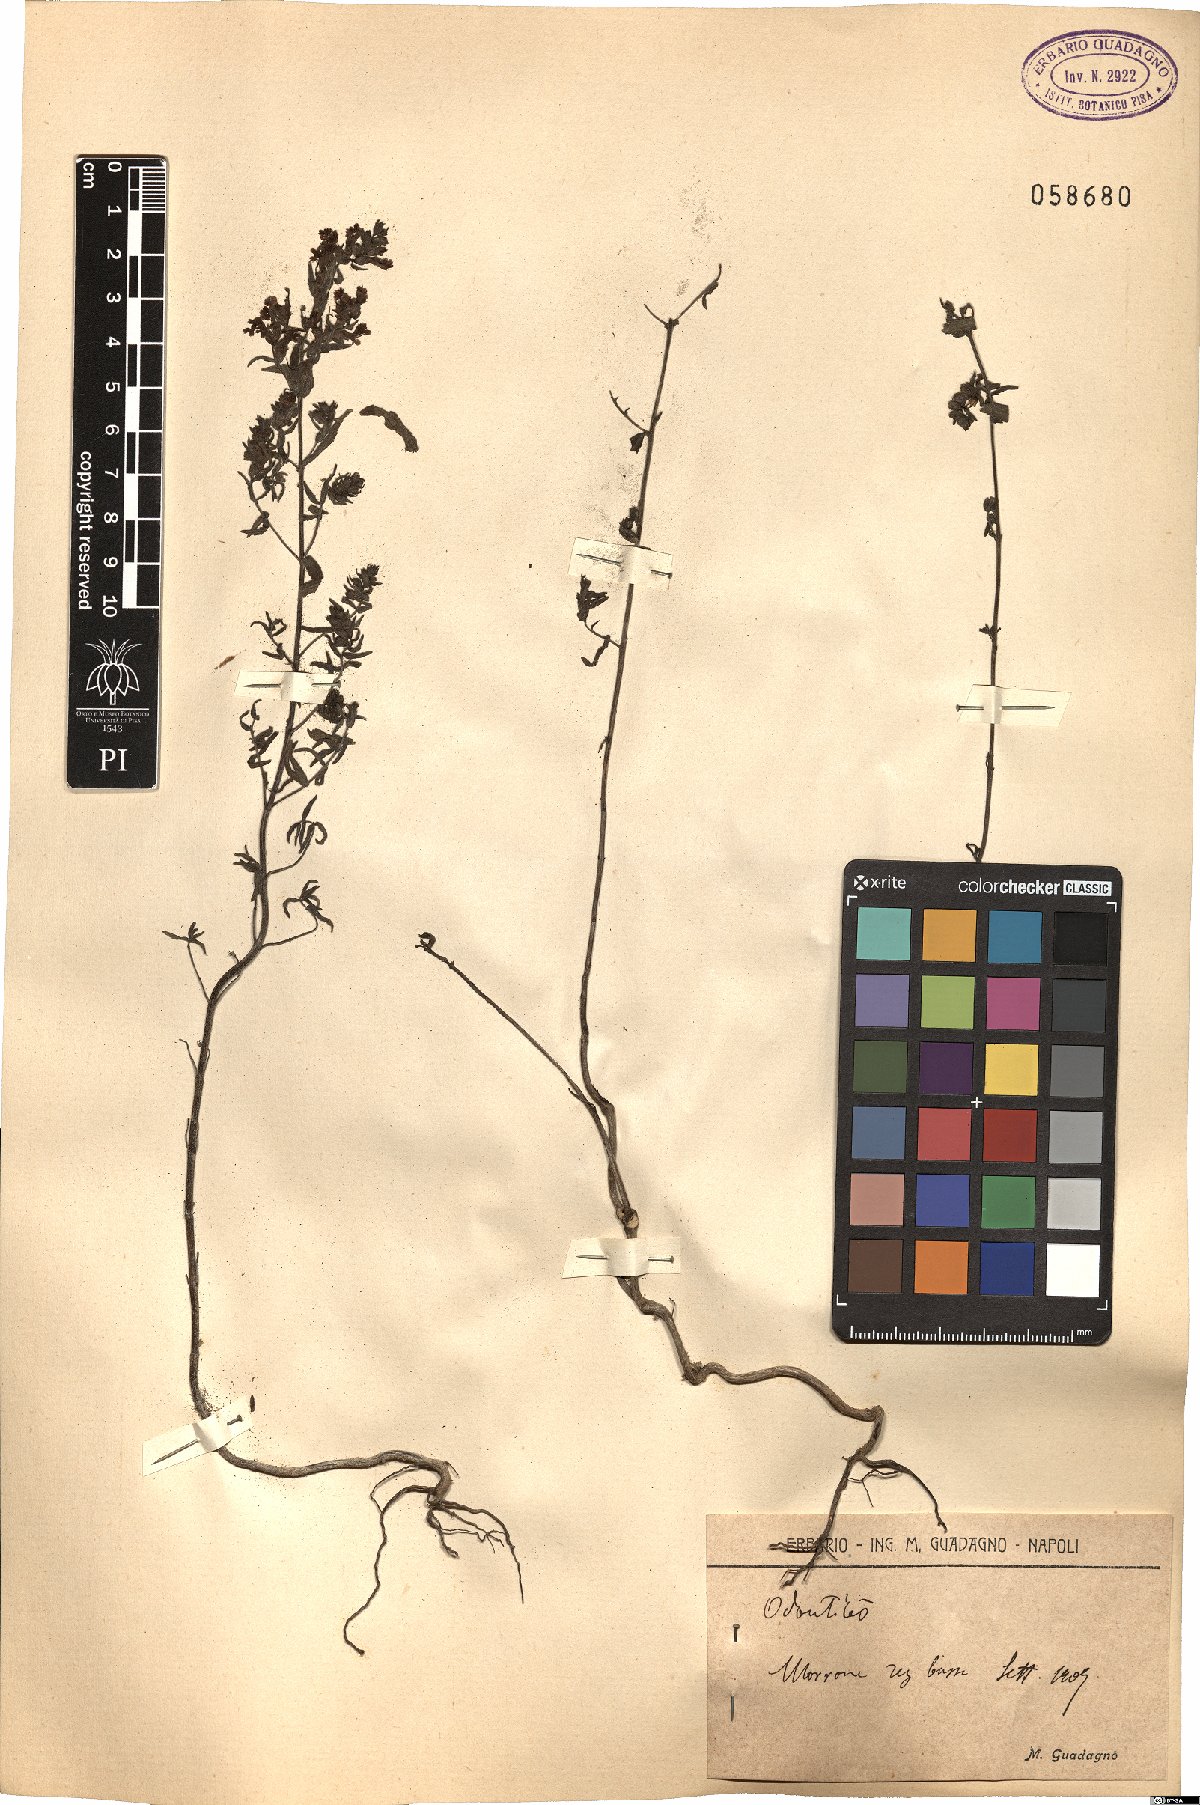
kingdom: Plantae
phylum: Tracheophyta
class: Magnoliopsida
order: Lamiales
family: Orobanchaceae
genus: Odontites
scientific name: Odontites
